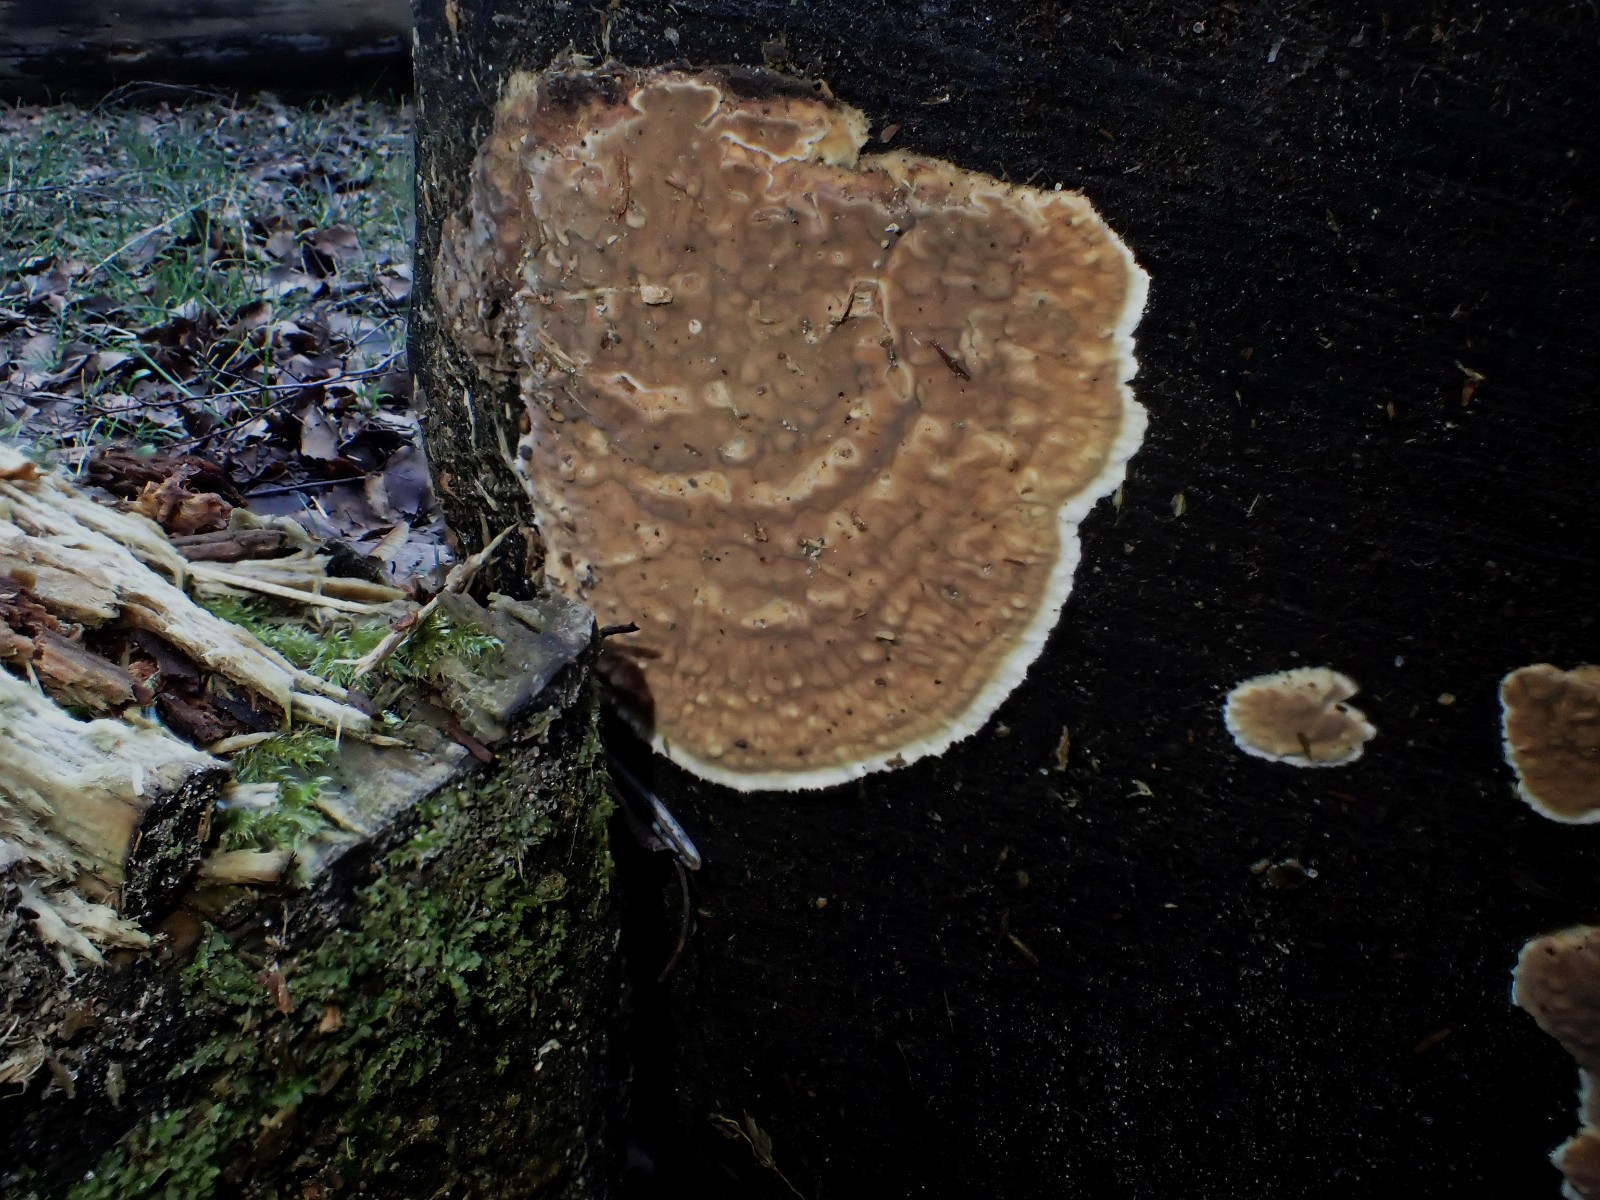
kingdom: Fungi
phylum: Basidiomycota
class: Agaricomycetes
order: Corticiales
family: Corticiaceae
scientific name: Corticiaceae
